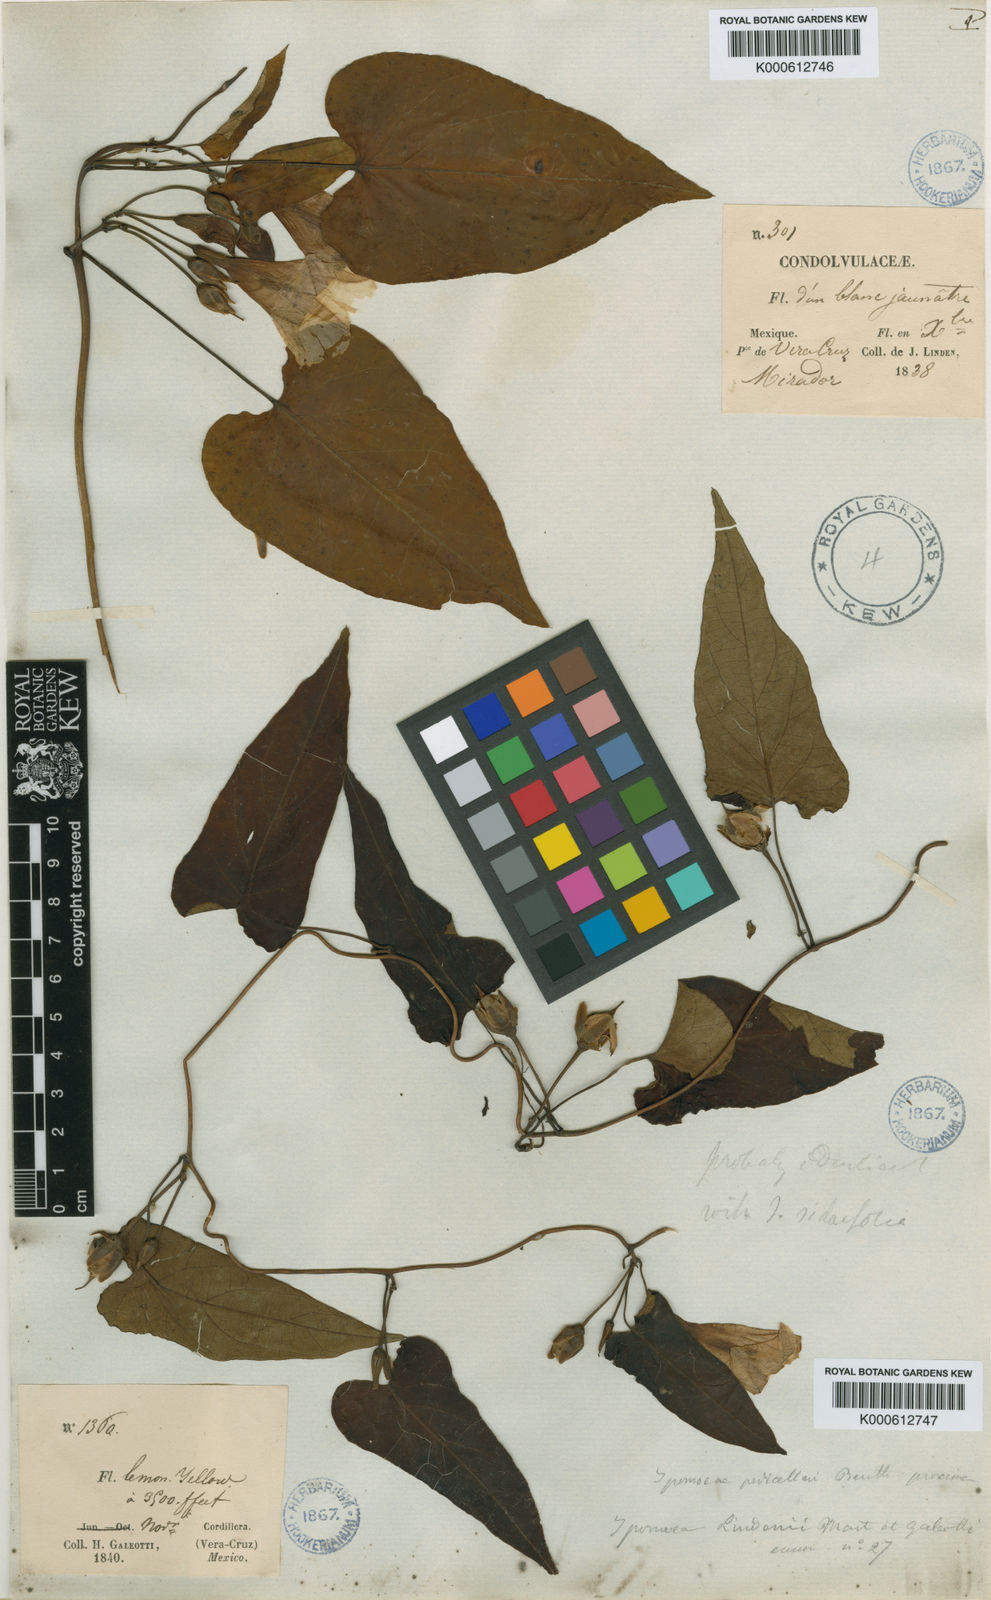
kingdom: Plantae
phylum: Tracheophyta
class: Magnoliopsida
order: Solanales
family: Convolvulaceae
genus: Ipomoea
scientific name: Ipomoea lindenii
